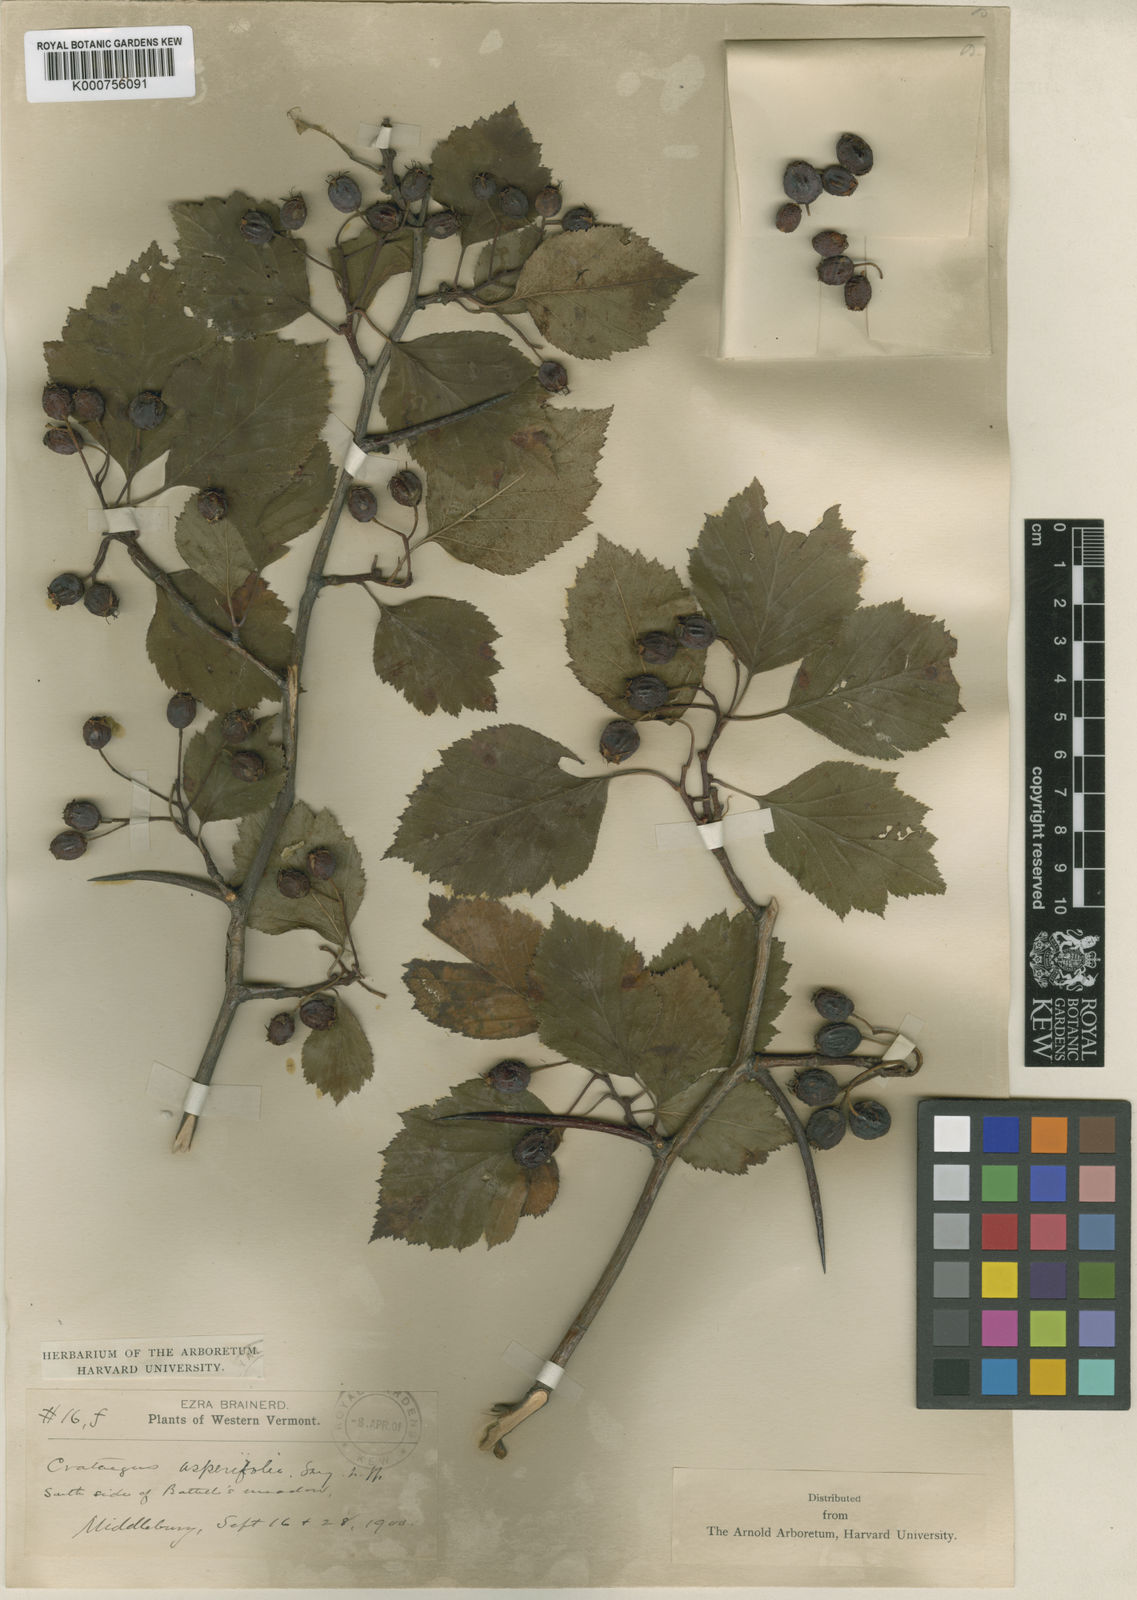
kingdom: Plantae
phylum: Tracheophyta
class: Magnoliopsida
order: Rosales
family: Rosaceae
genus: Crataegus
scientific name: Crataegus scabrida
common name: Rough hawthorn
